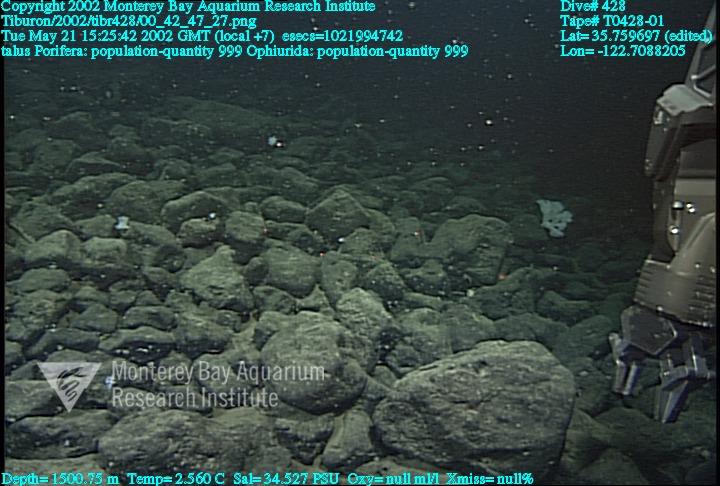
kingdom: Animalia
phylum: Porifera
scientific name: Porifera
